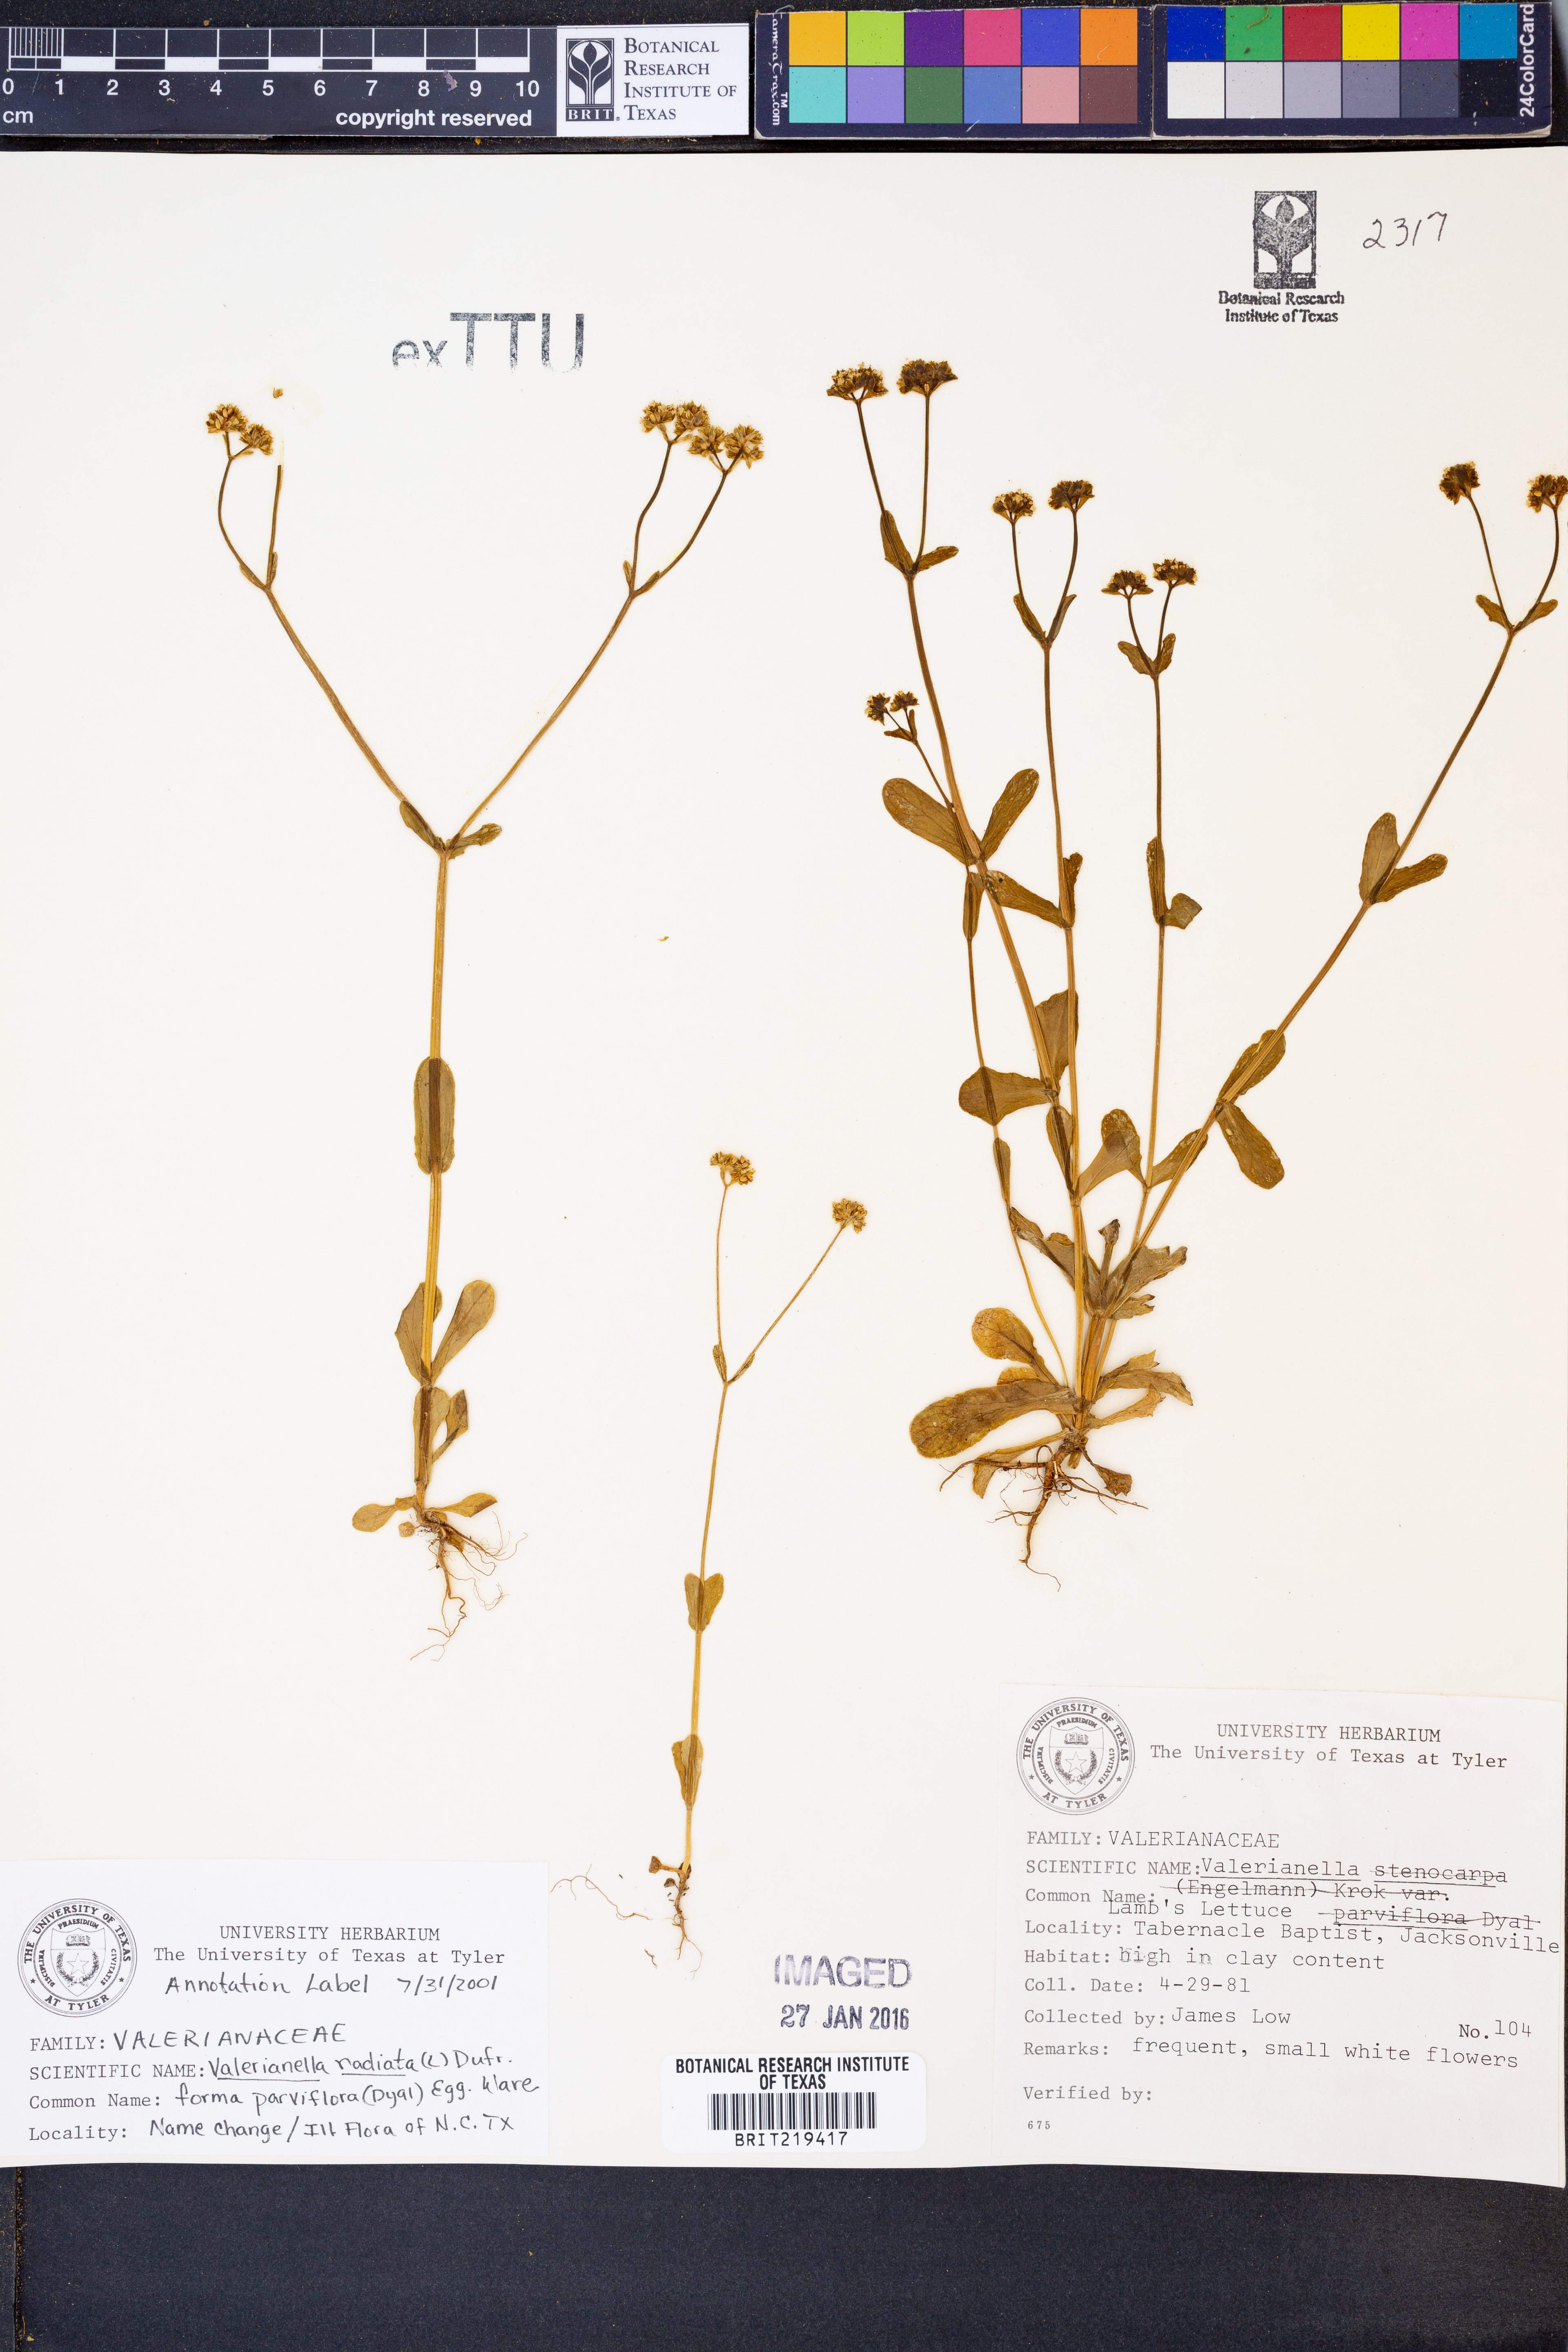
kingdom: Plantae
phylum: Tracheophyta
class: Magnoliopsida
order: Dipsacales
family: Caprifoliaceae
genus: Valerianella
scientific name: Valerianella radiata
